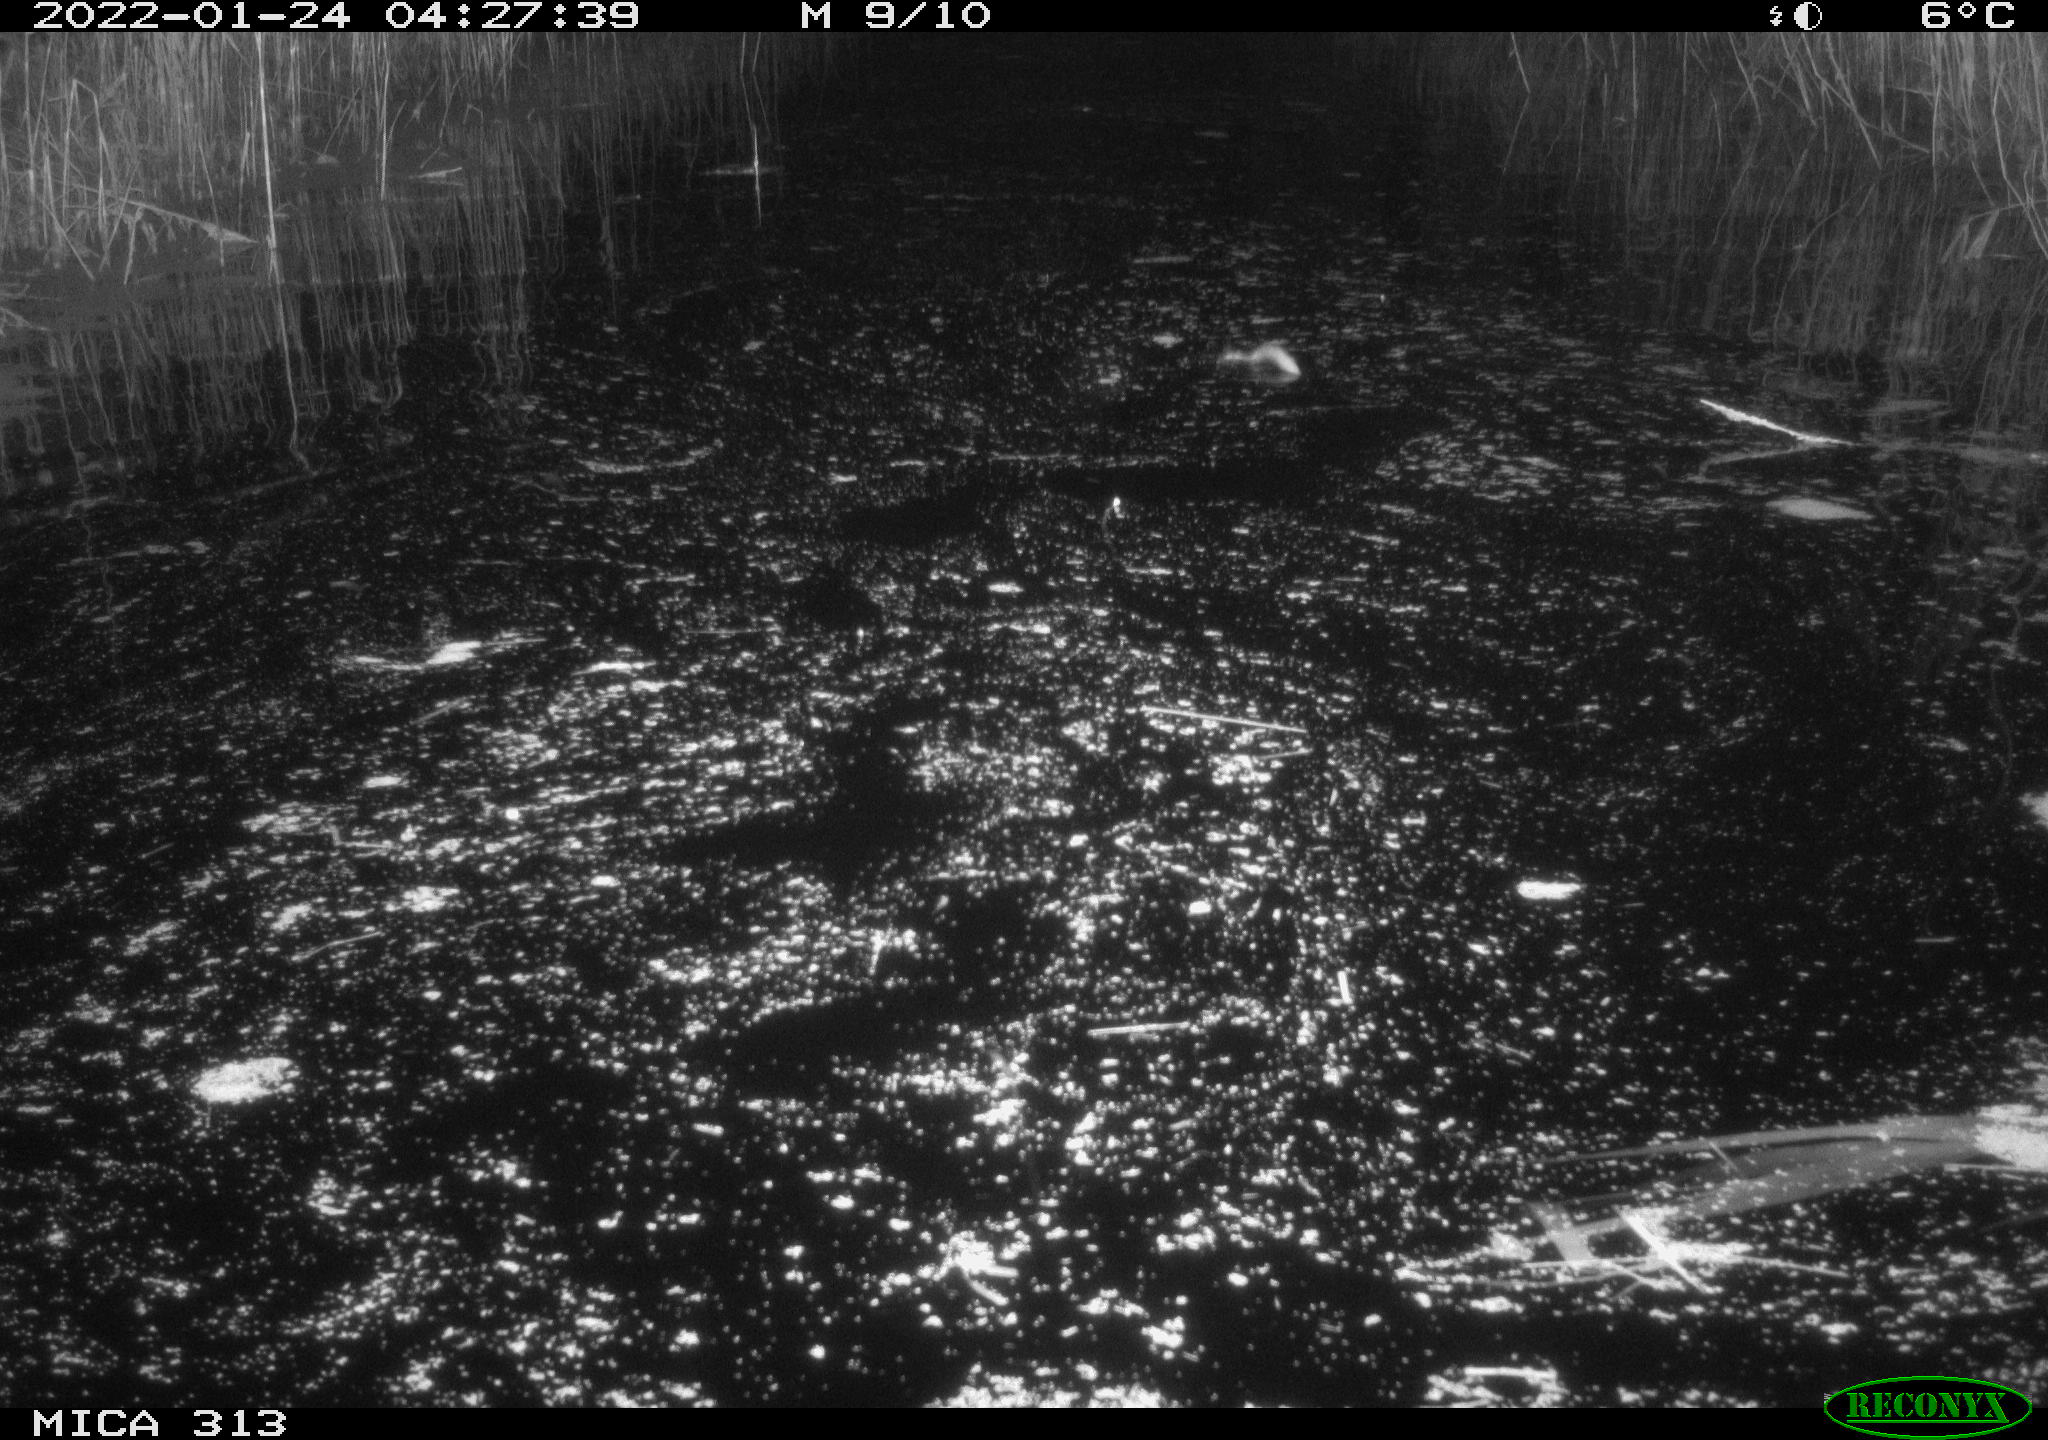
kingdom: Animalia
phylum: Chordata
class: Mammalia
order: Rodentia
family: Cricetidae
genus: Ondatra
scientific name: Ondatra zibethicus
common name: Muskrat
